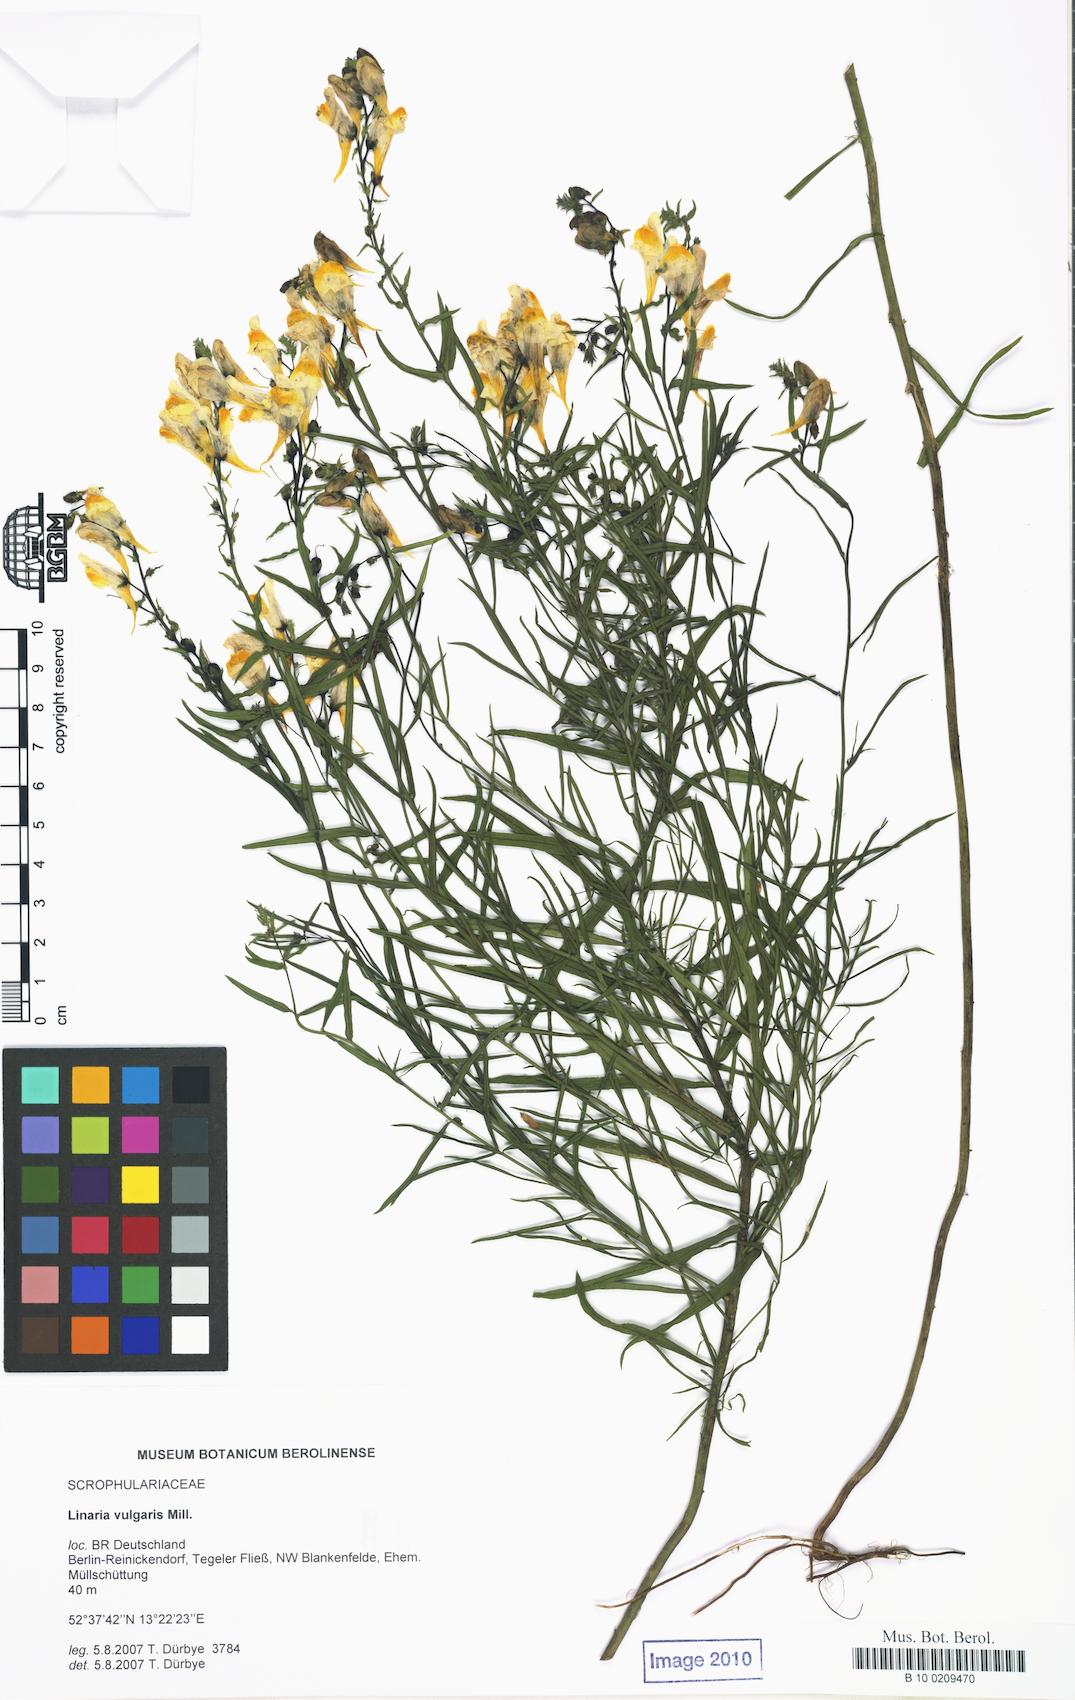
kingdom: Plantae
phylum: Tracheophyta
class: Magnoliopsida
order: Lamiales
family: Plantaginaceae
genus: Linaria
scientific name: Linaria vulgaris
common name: Butter and eggs
